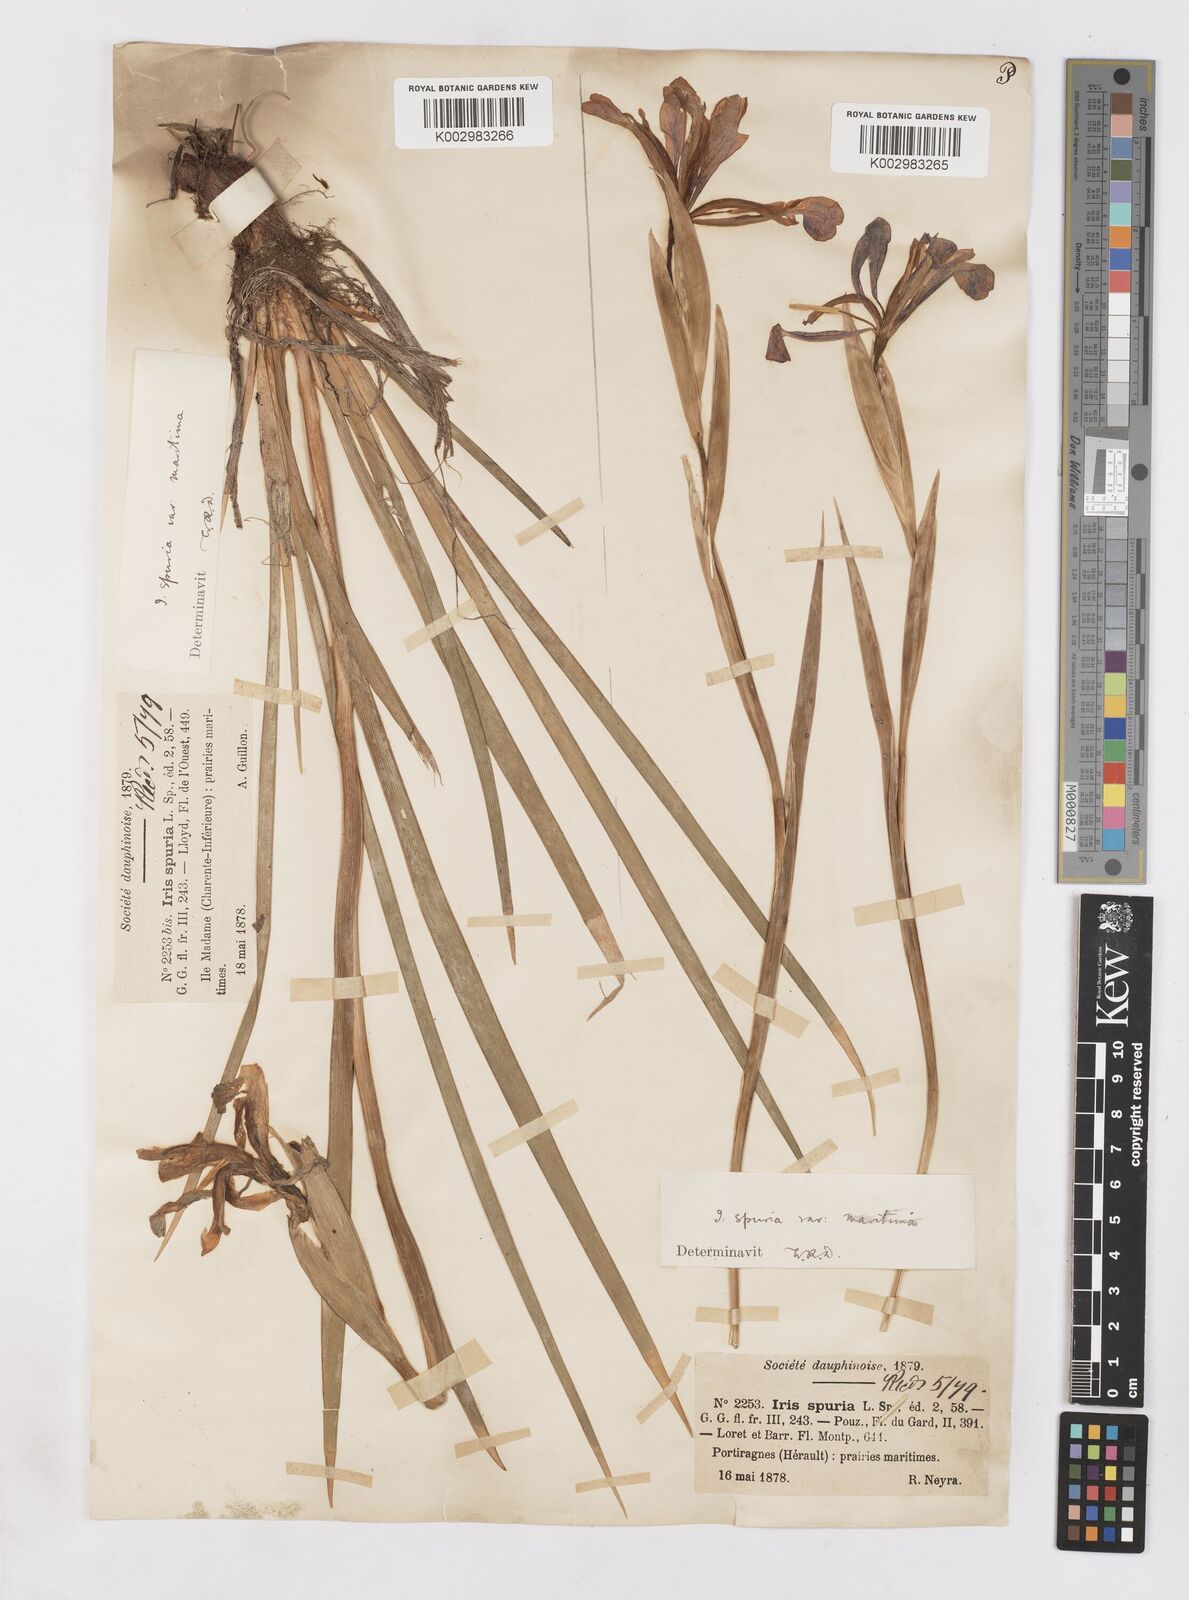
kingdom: Plantae
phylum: Tracheophyta
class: Liliopsida
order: Asparagales
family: Iridaceae
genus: Iris
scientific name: Iris spuria
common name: Blue iris
